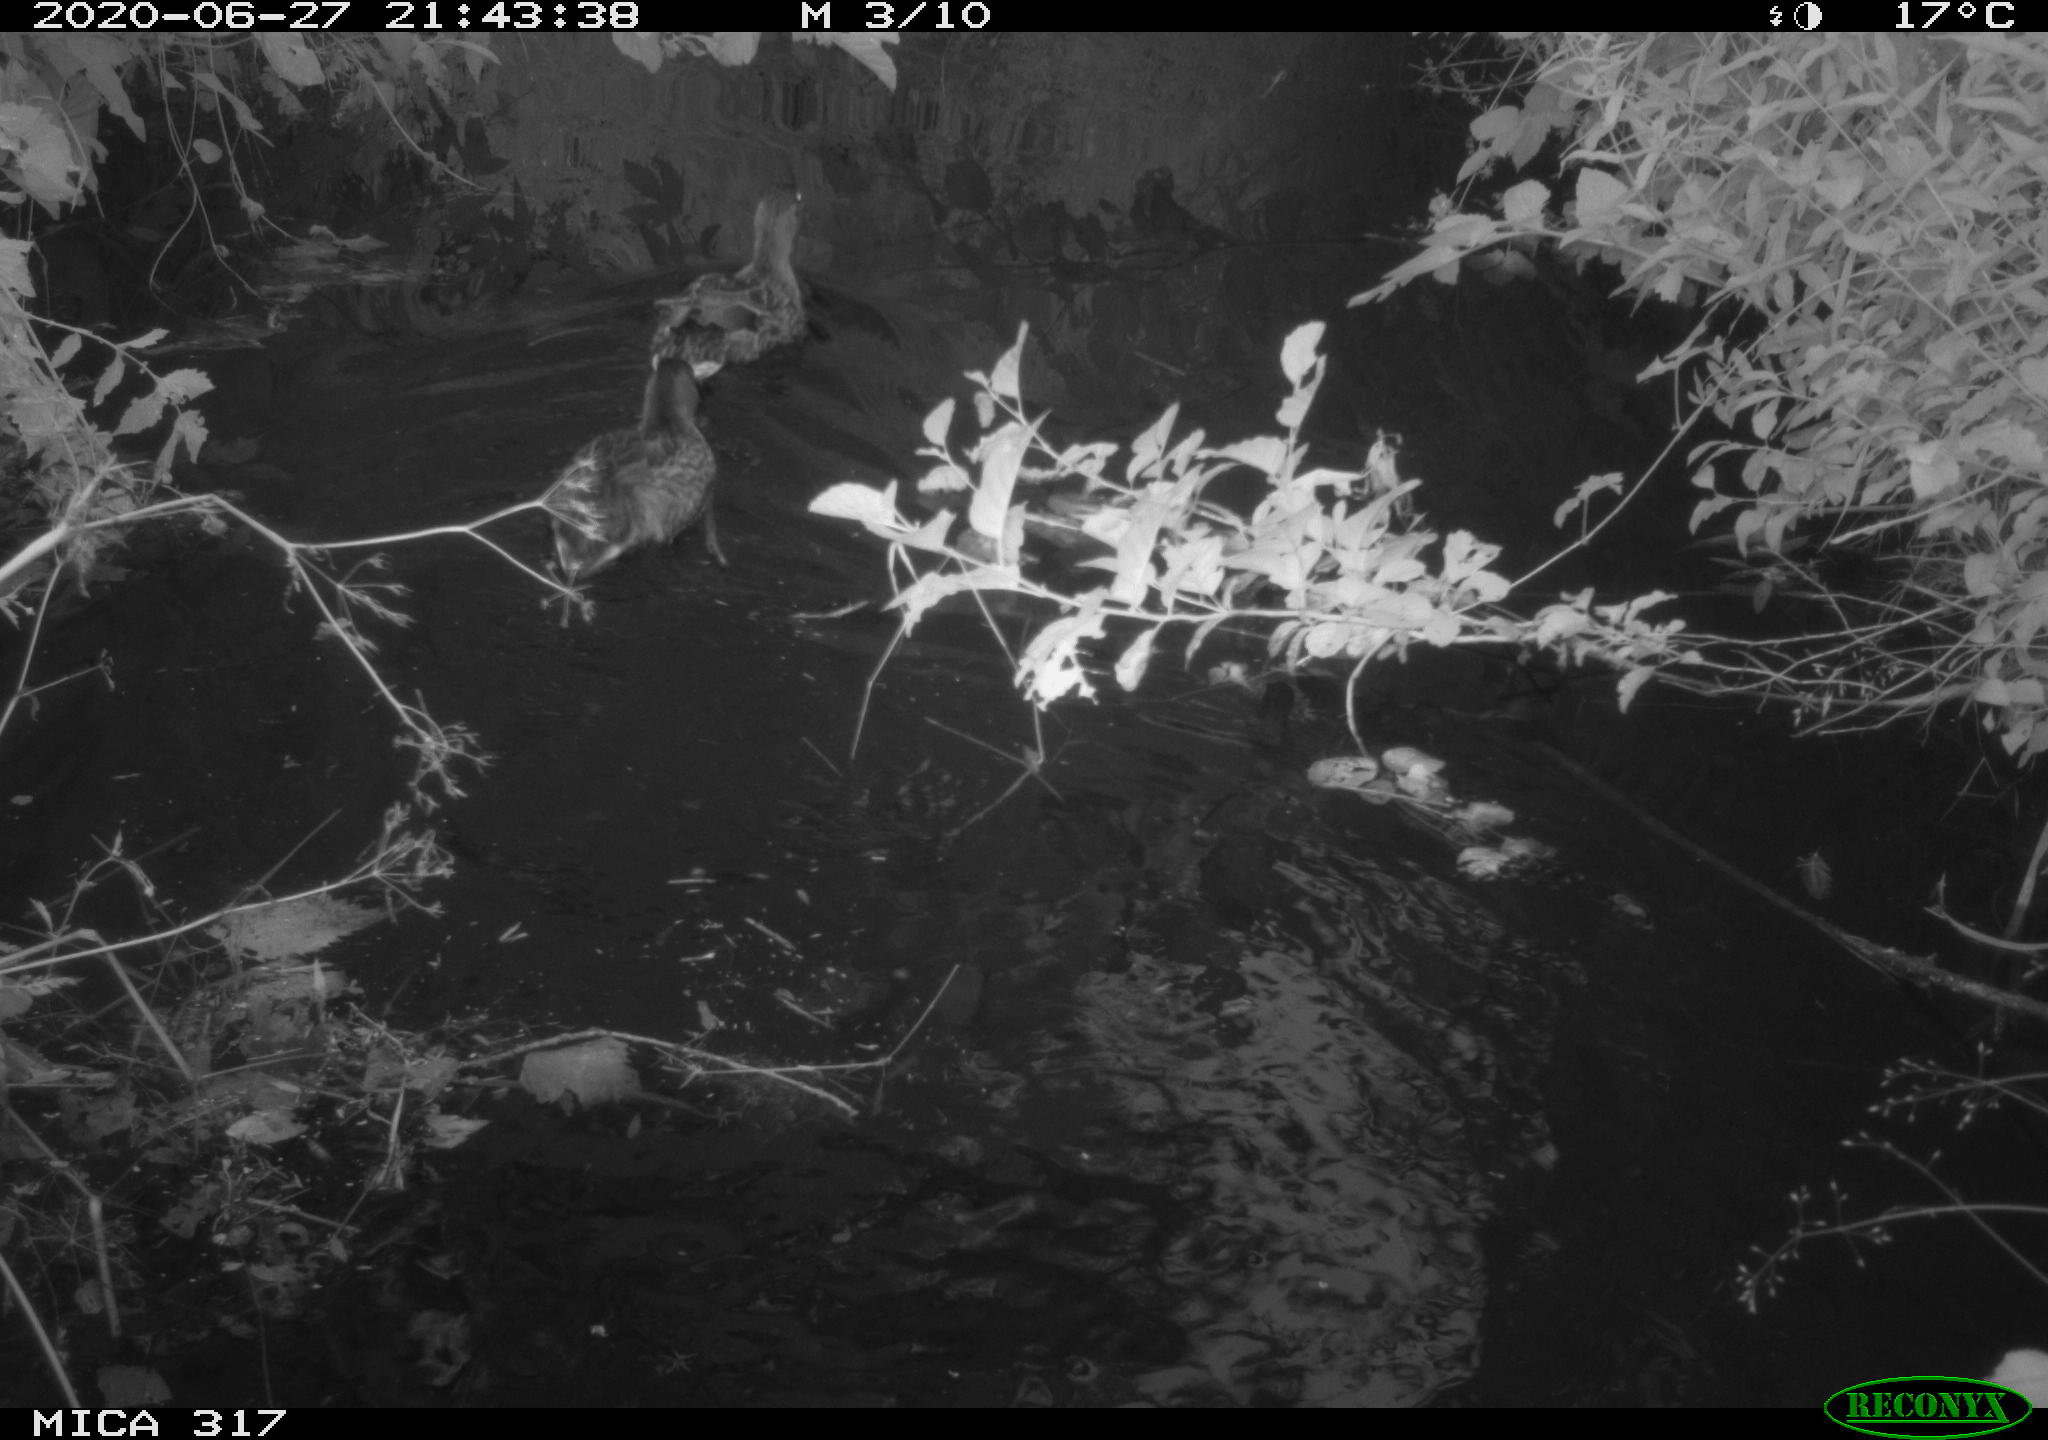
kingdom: Animalia
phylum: Chordata
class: Aves
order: Anseriformes
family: Anatidae
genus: Anas
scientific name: Anas platyrhynchos
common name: Mallard
